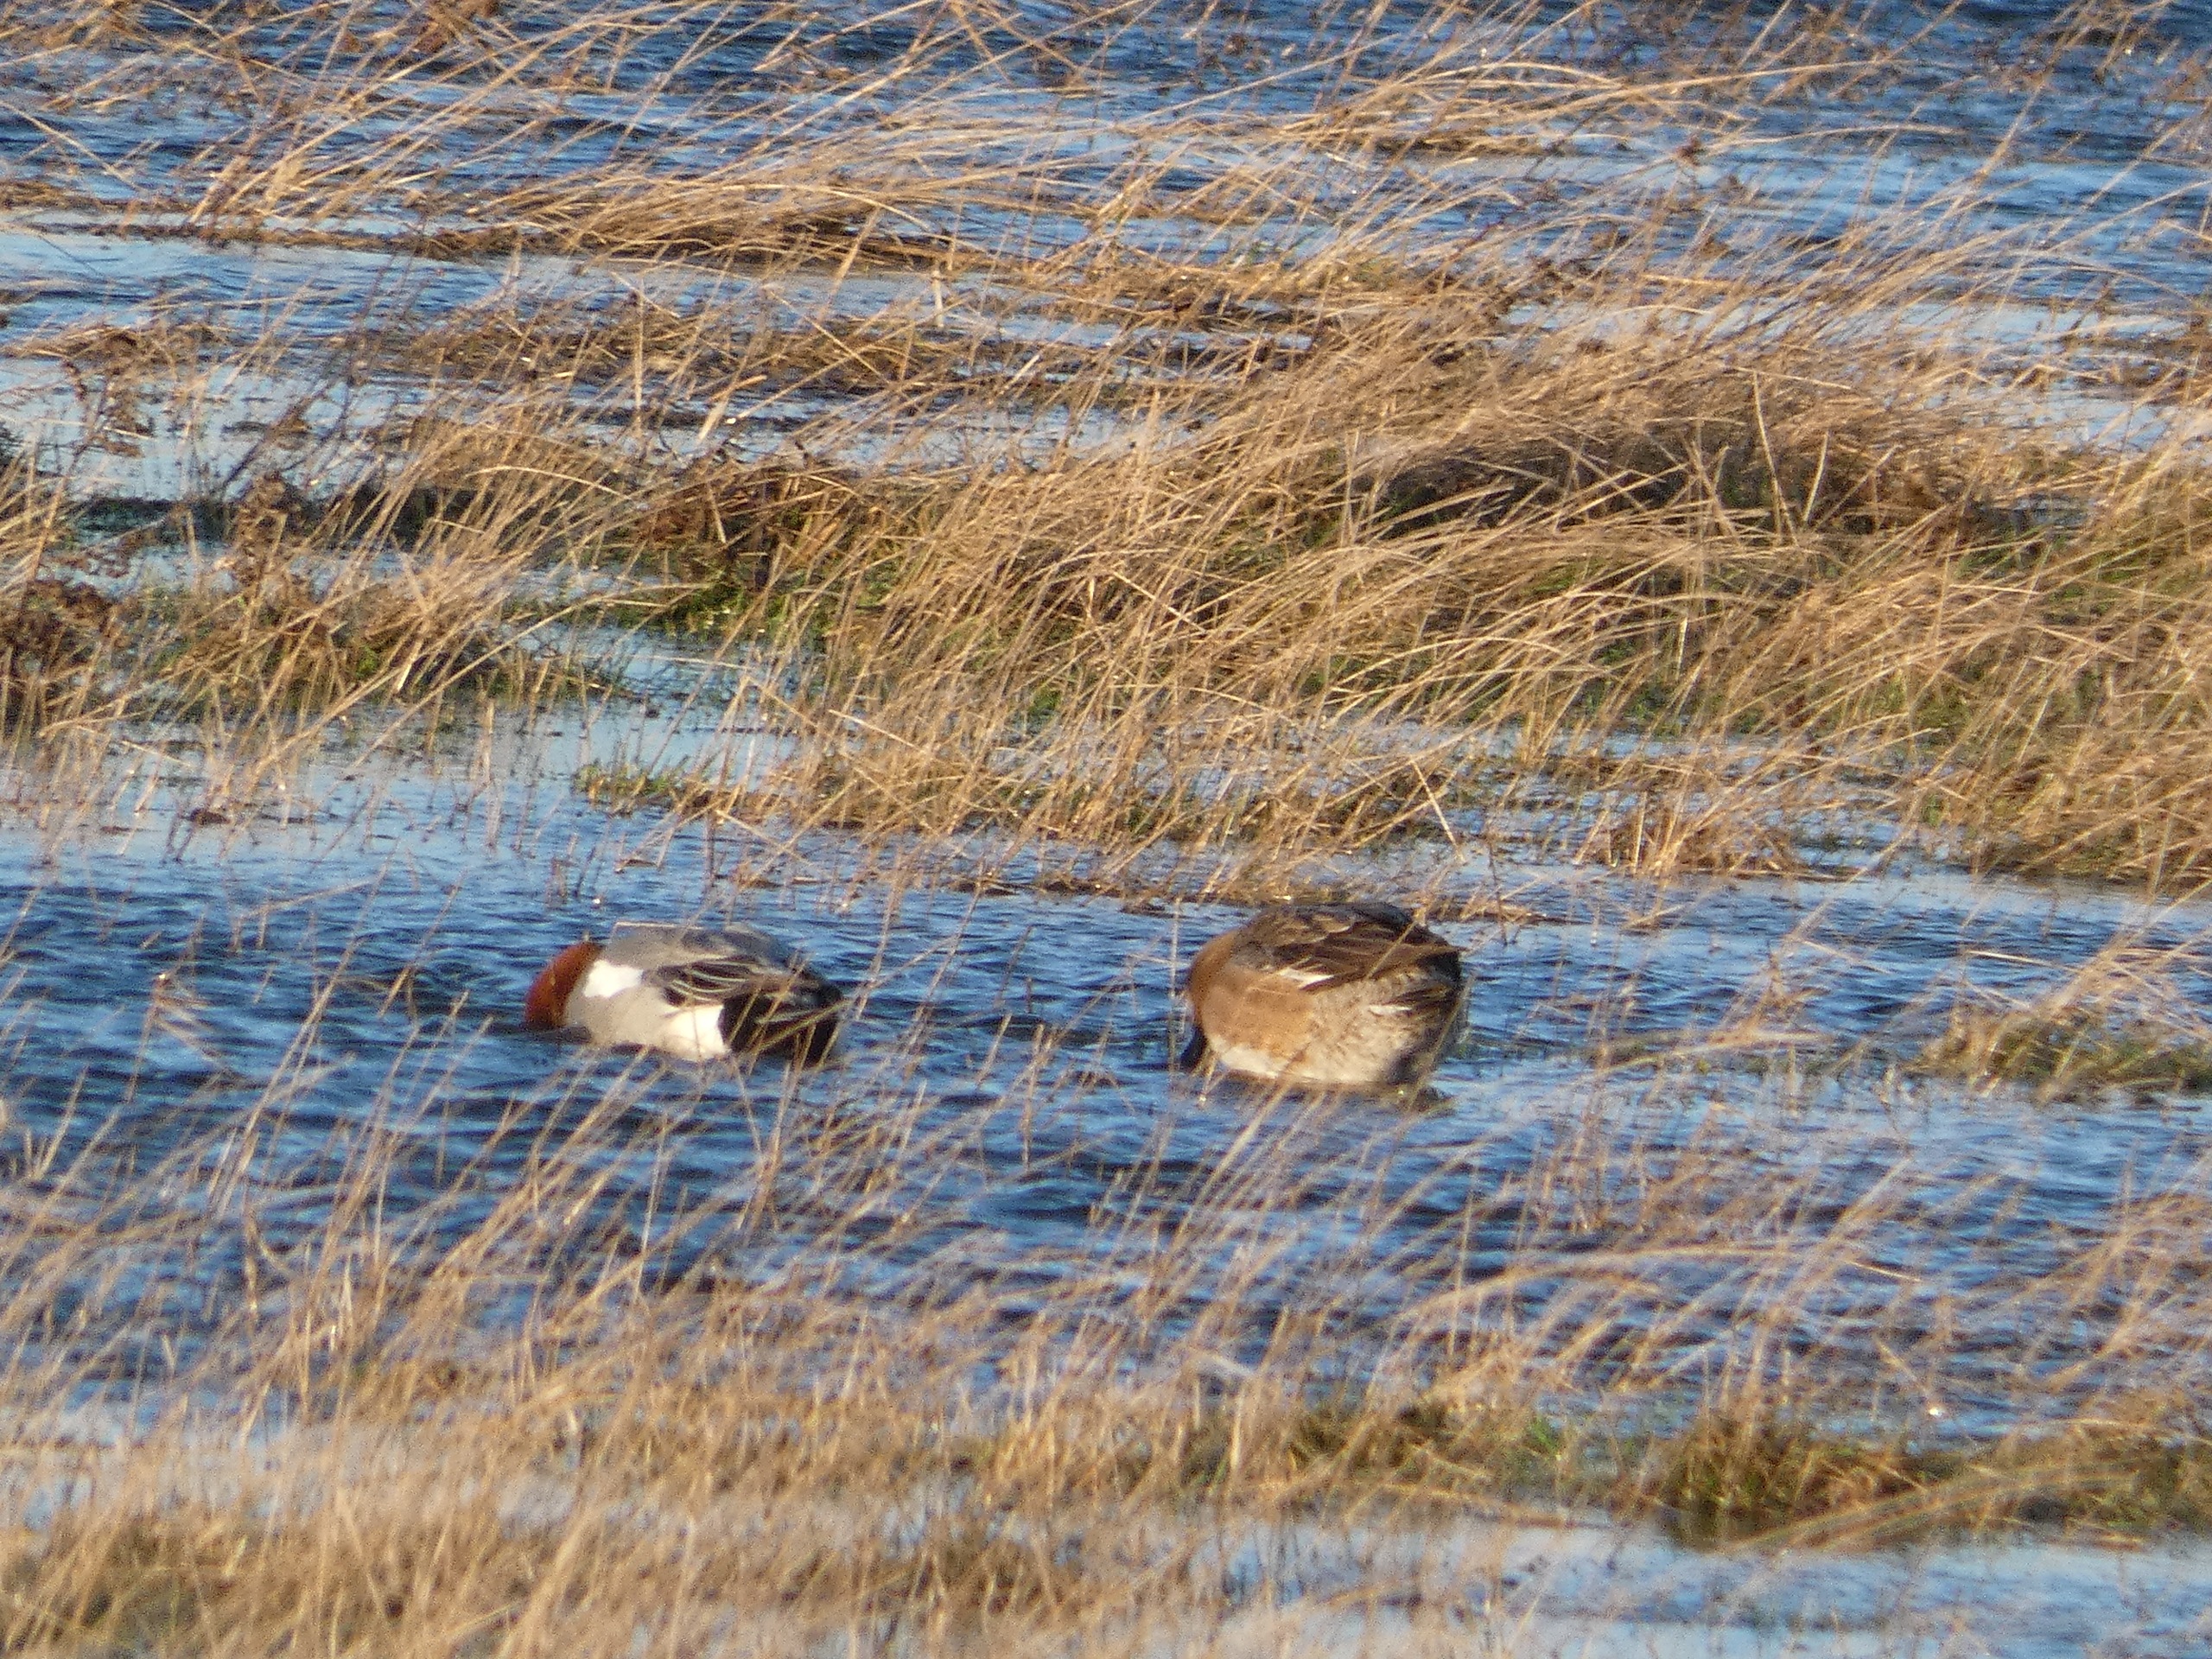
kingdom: Animalia
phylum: Chordata
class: Aves
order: Anseriformes
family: Anatidae
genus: Mareca
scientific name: Mareca penelope
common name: Pibeand
